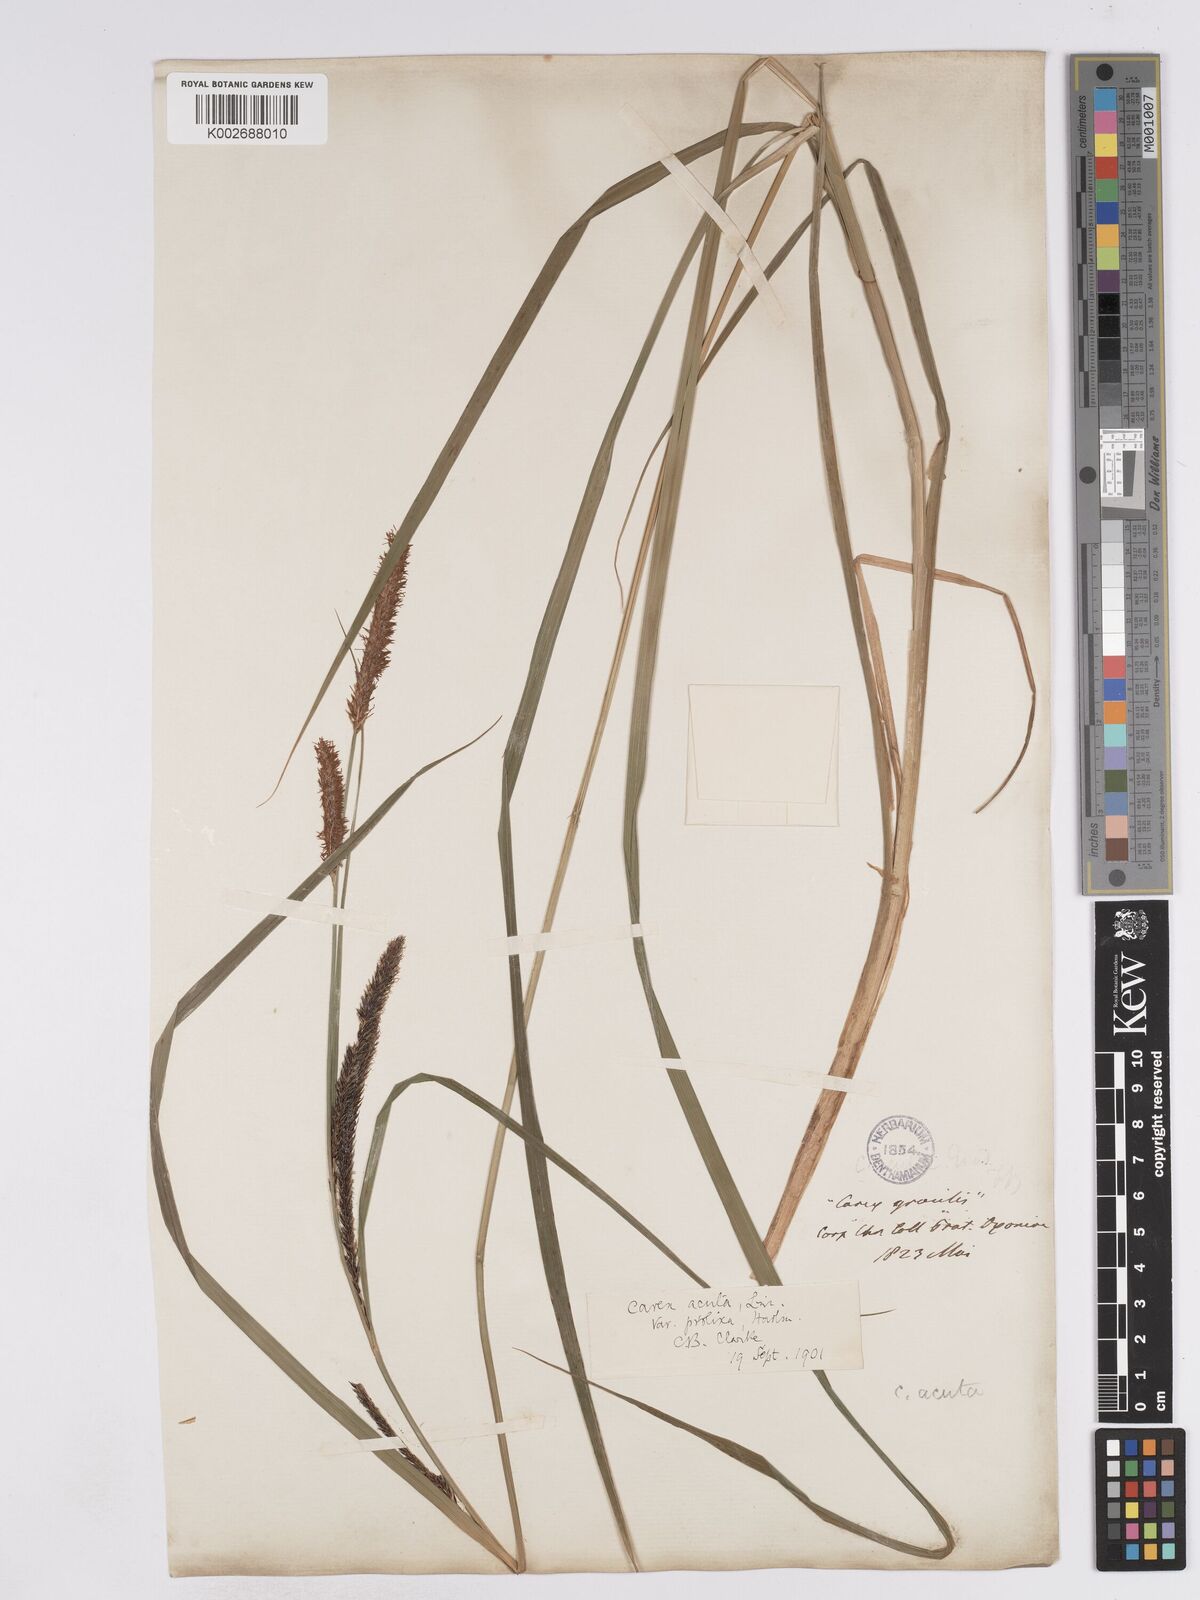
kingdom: Plantae
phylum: Tracheophyta
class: Liliopsida
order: Poales
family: Cyperaceae
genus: Carex
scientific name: Carex acuta
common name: Slender tufted-sedge
